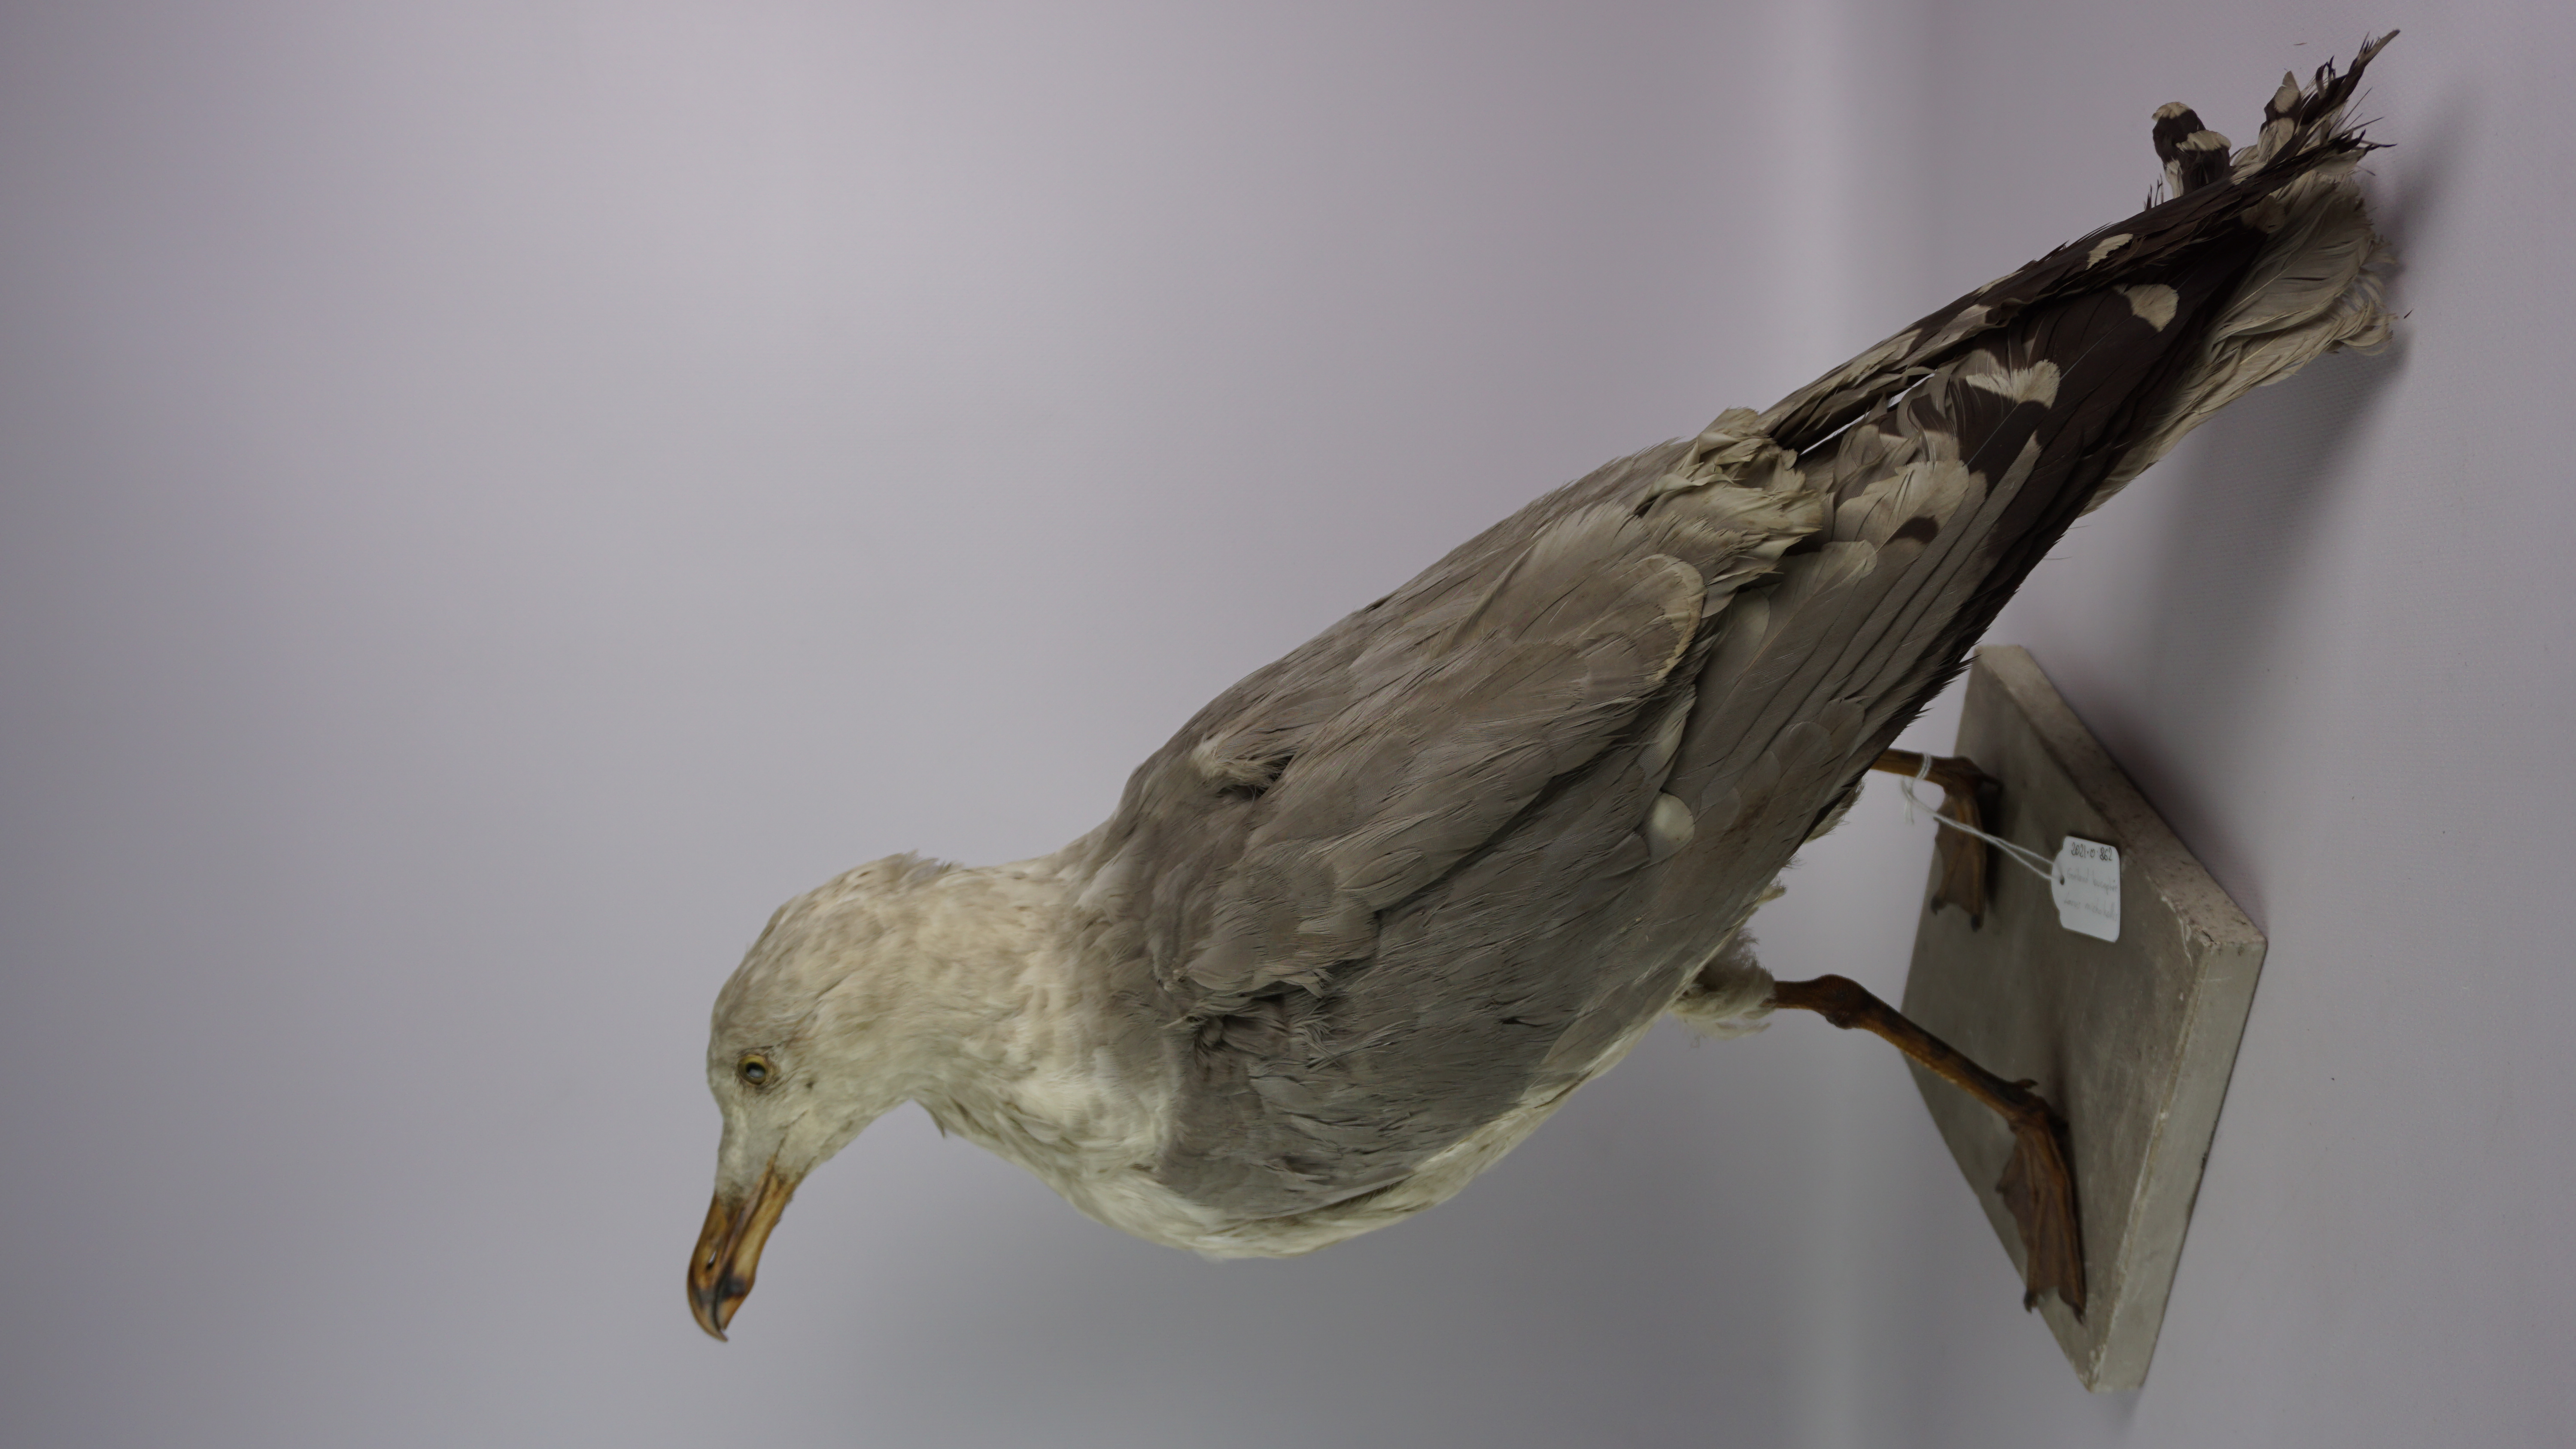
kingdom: Animalia
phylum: Chordata
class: Aves
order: Charadriiformes
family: Laridae
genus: Larus
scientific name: Larus michahellis
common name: Yellow-legged gull
